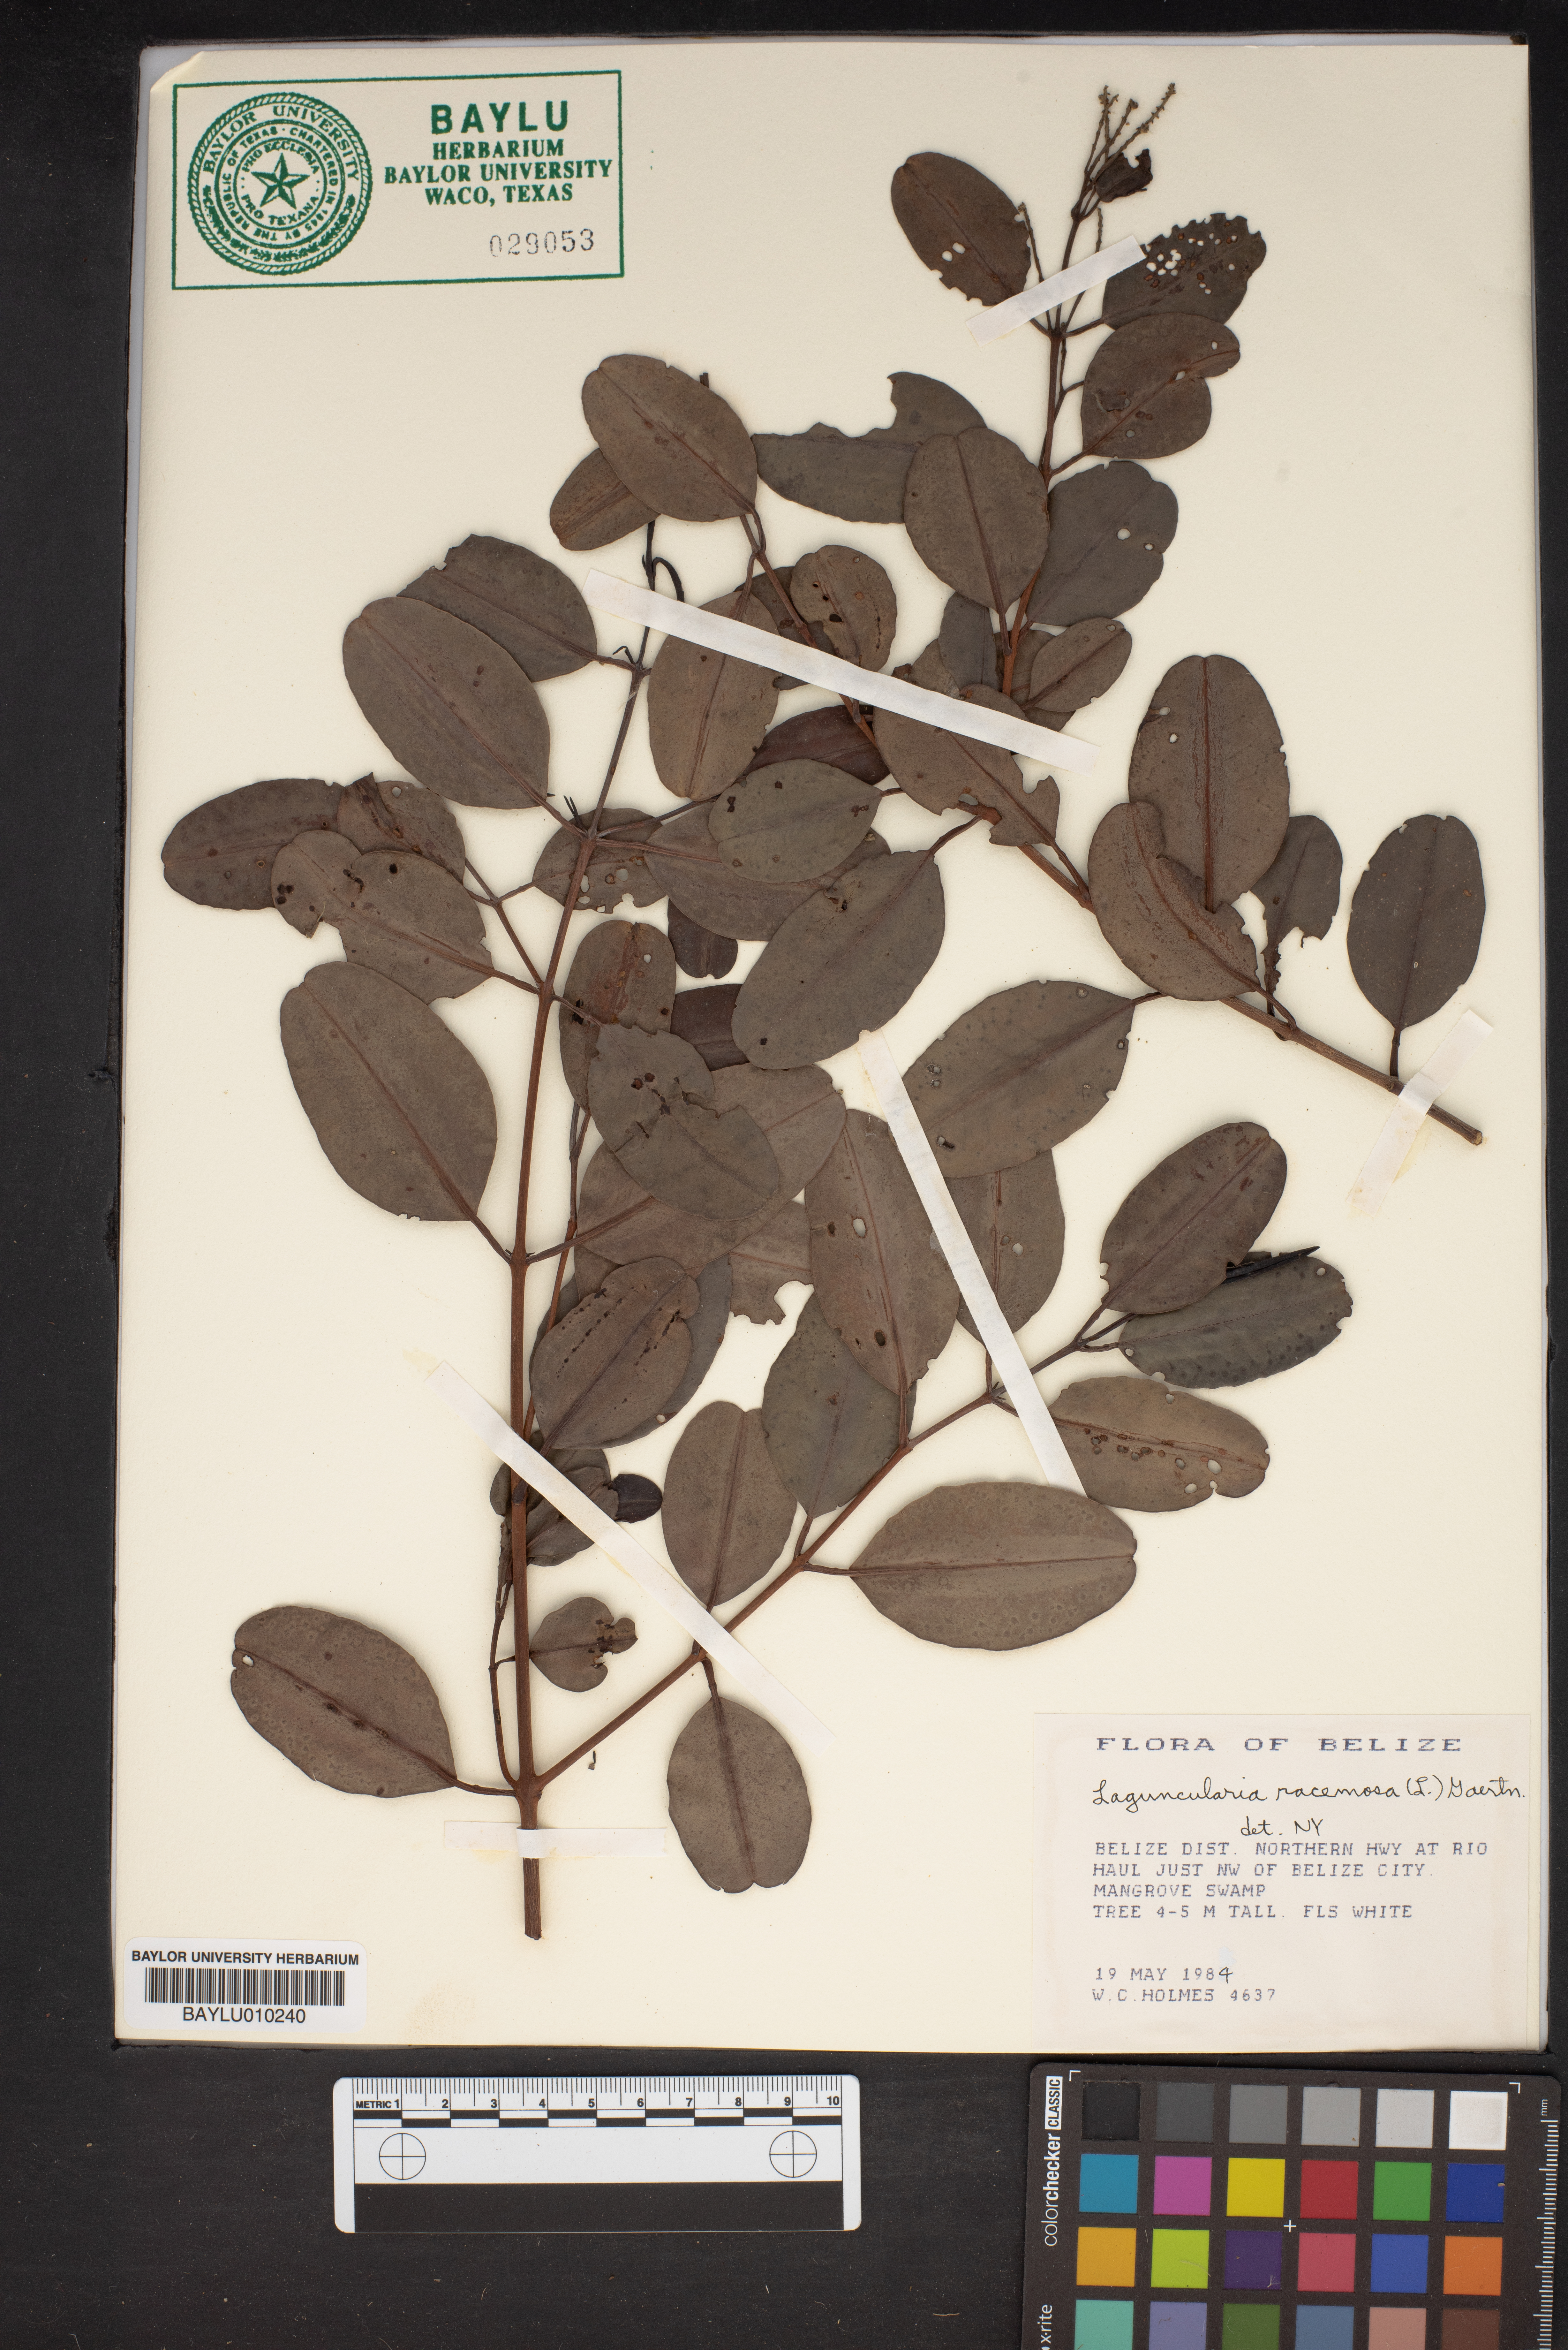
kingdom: Plantae
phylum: Tracheophyta
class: Magnoliopsida
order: Myrtales
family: Combretaceae
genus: Laguncularia
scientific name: Laguncularia racemosa
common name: White mangrove
